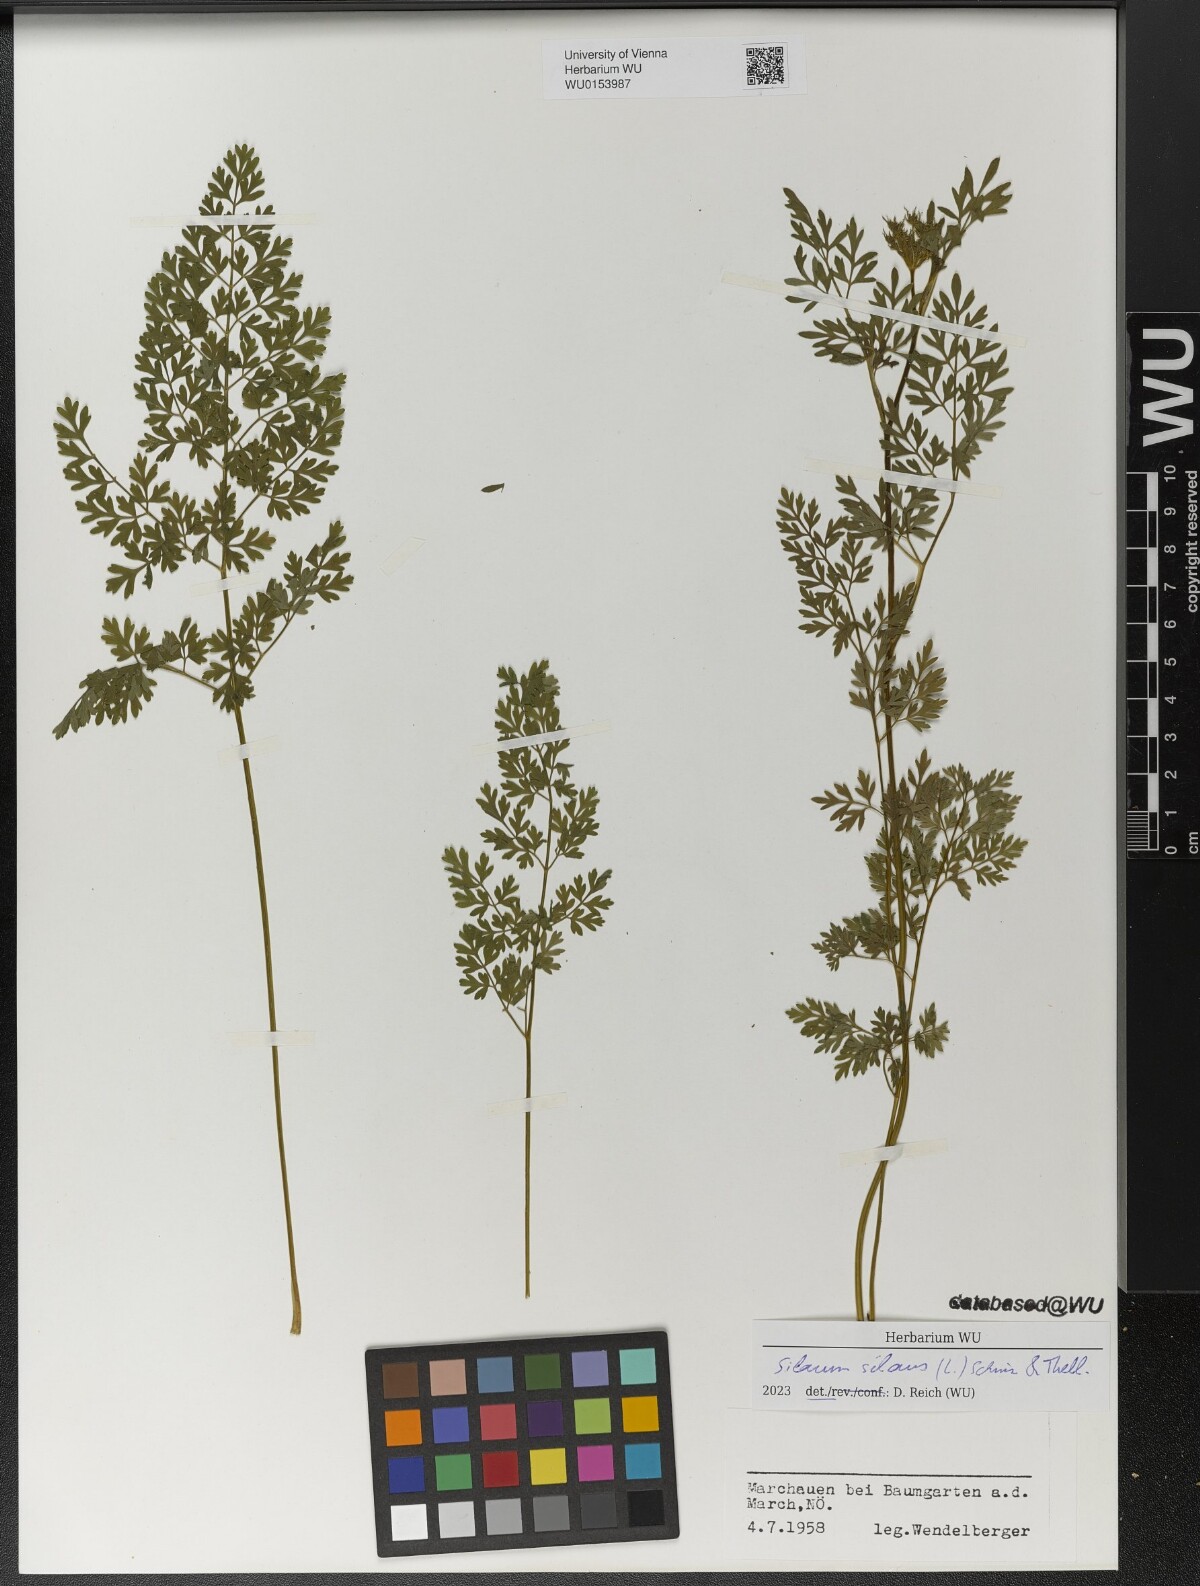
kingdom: Plantae
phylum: Tracheophyta
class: Magnoliopsida
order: Apiales
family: Apiaceae
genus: Silaum
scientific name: Silaum silaus
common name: Pepper-saxifrage
